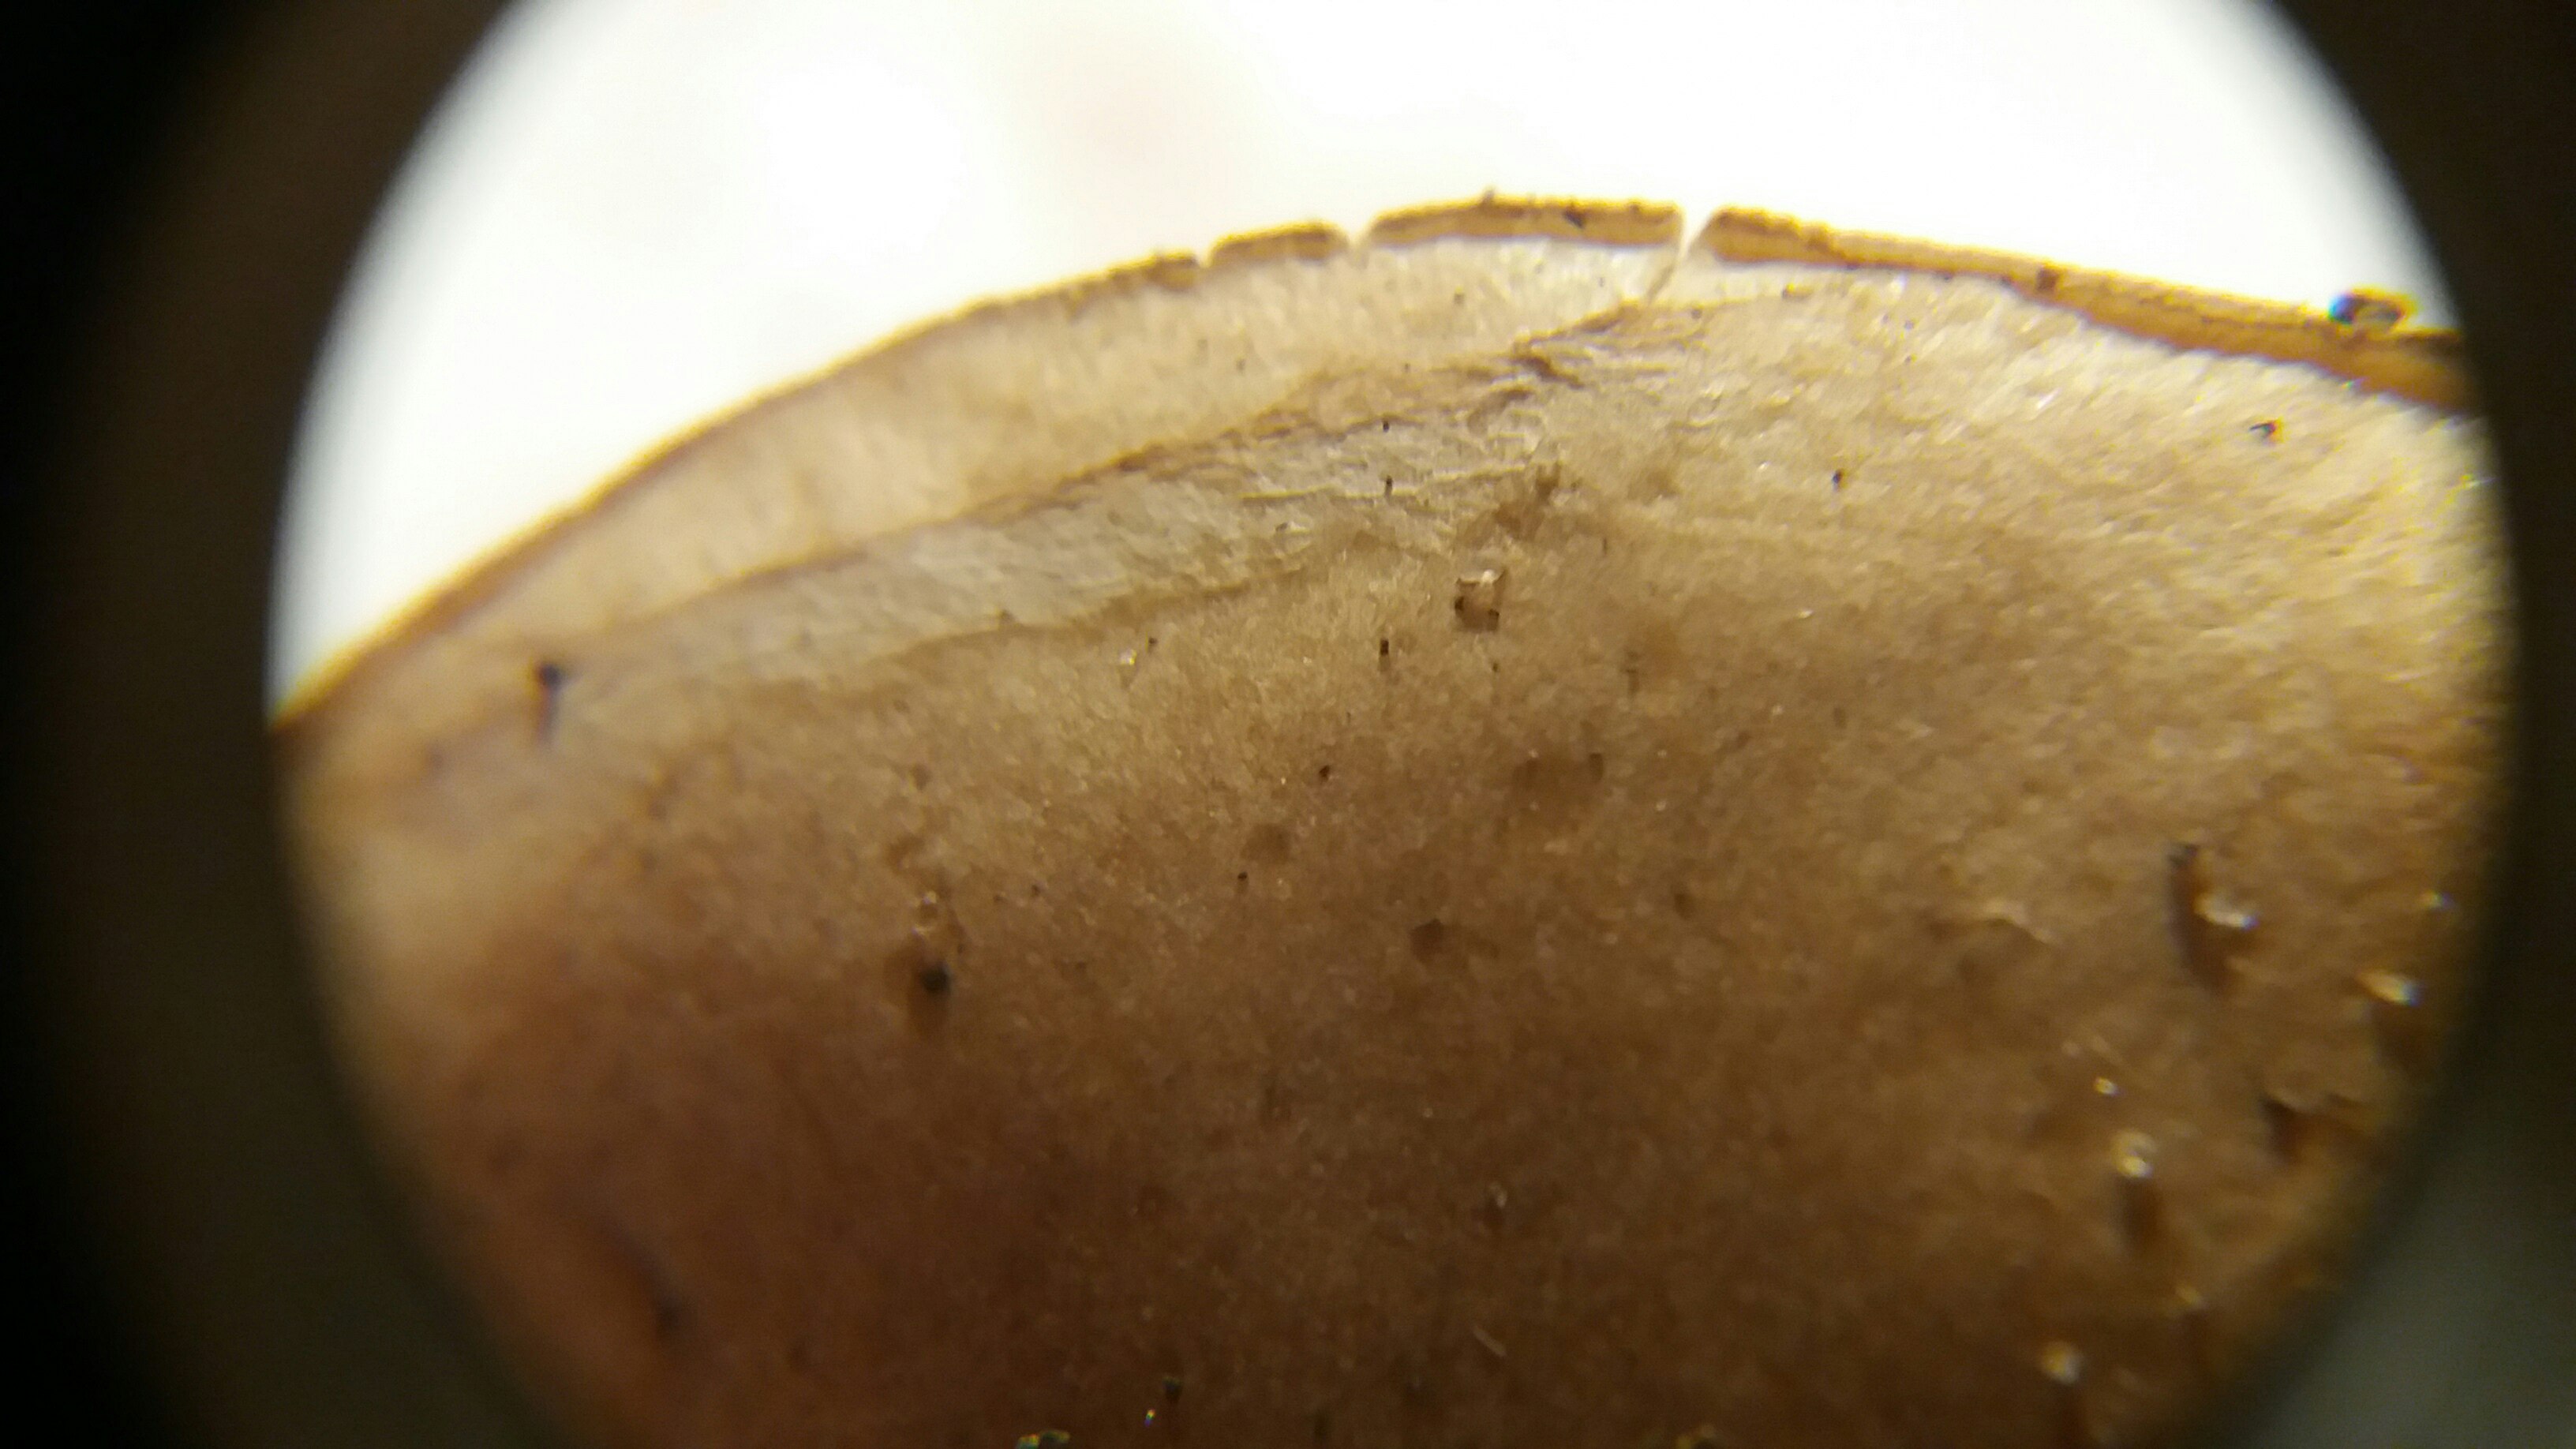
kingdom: Fungi
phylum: Basidiomycota
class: Agaricomycetes
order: Agaricales
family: Hymenogastraceae
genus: Hebeloma
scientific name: Hebeloma mesophaeum
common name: lerbrun tåreblad
